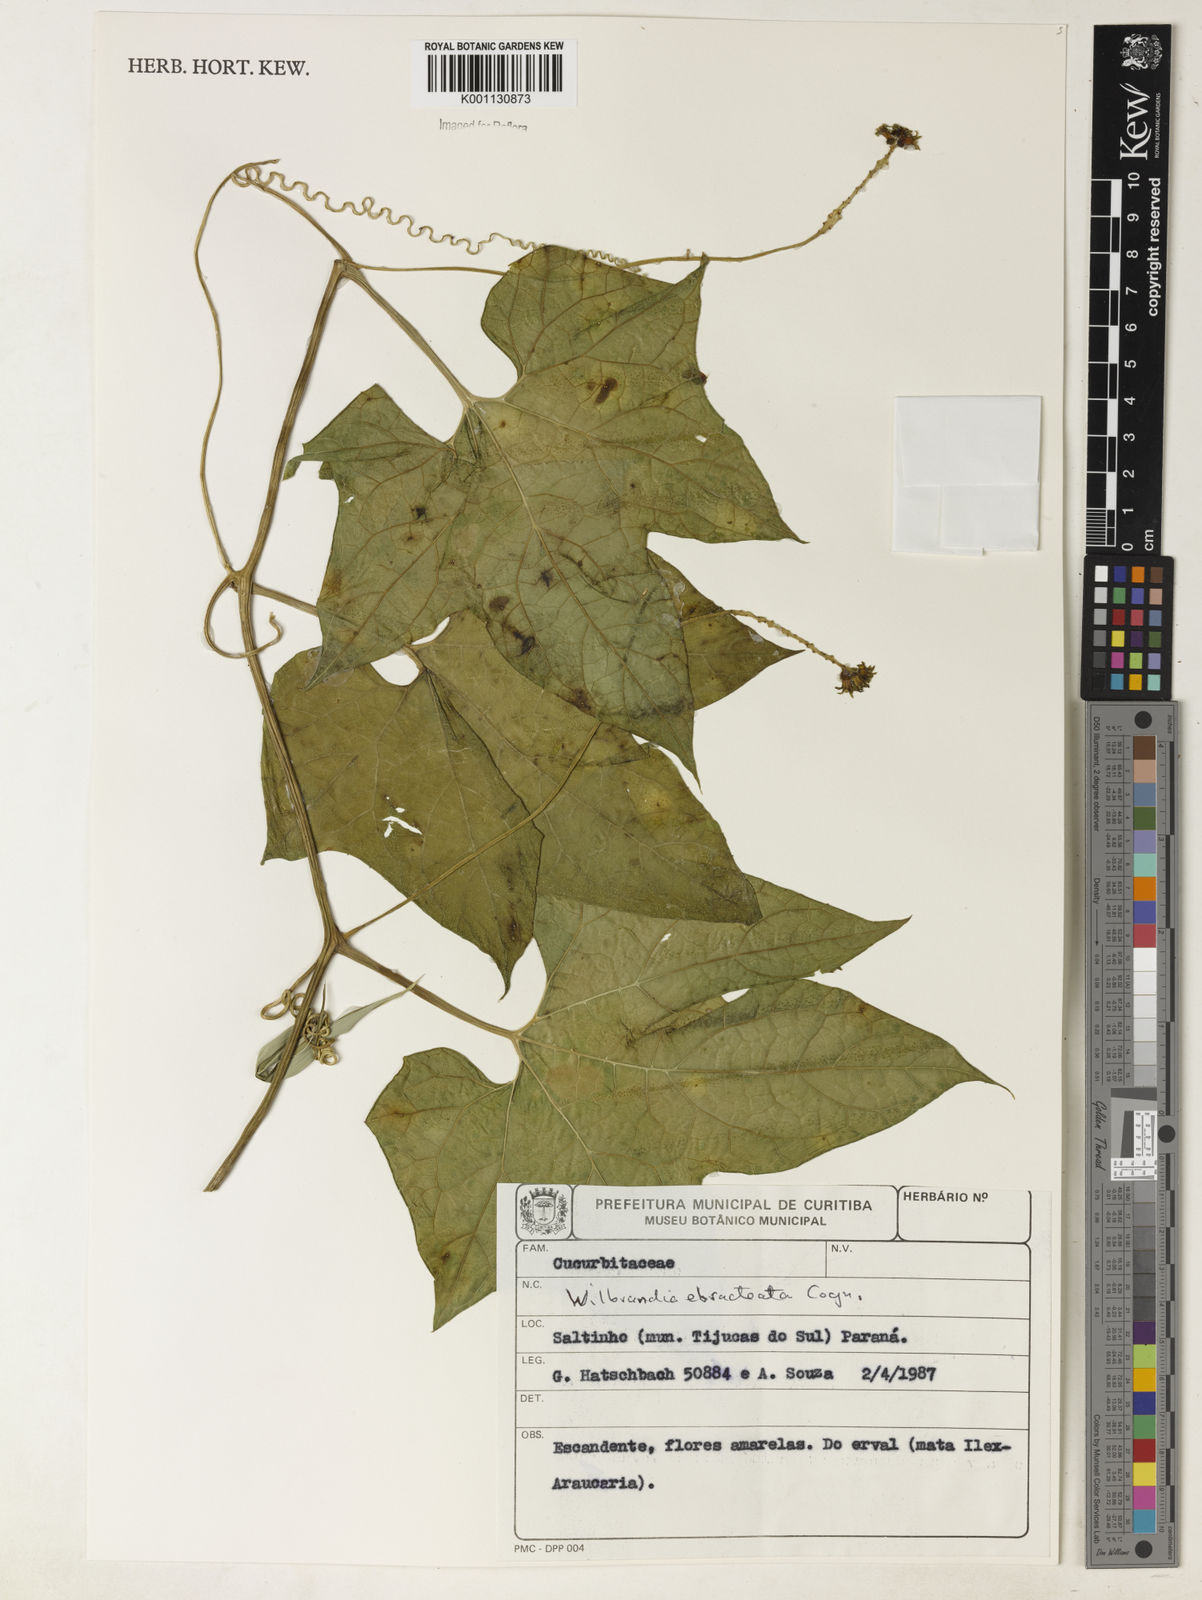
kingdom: Plantae
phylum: Tracheophyta
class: Magnoliopsida
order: Cucurbitales
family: Cucurbitaceae
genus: Wilbrandia
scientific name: Wilbrandia ebracteata
